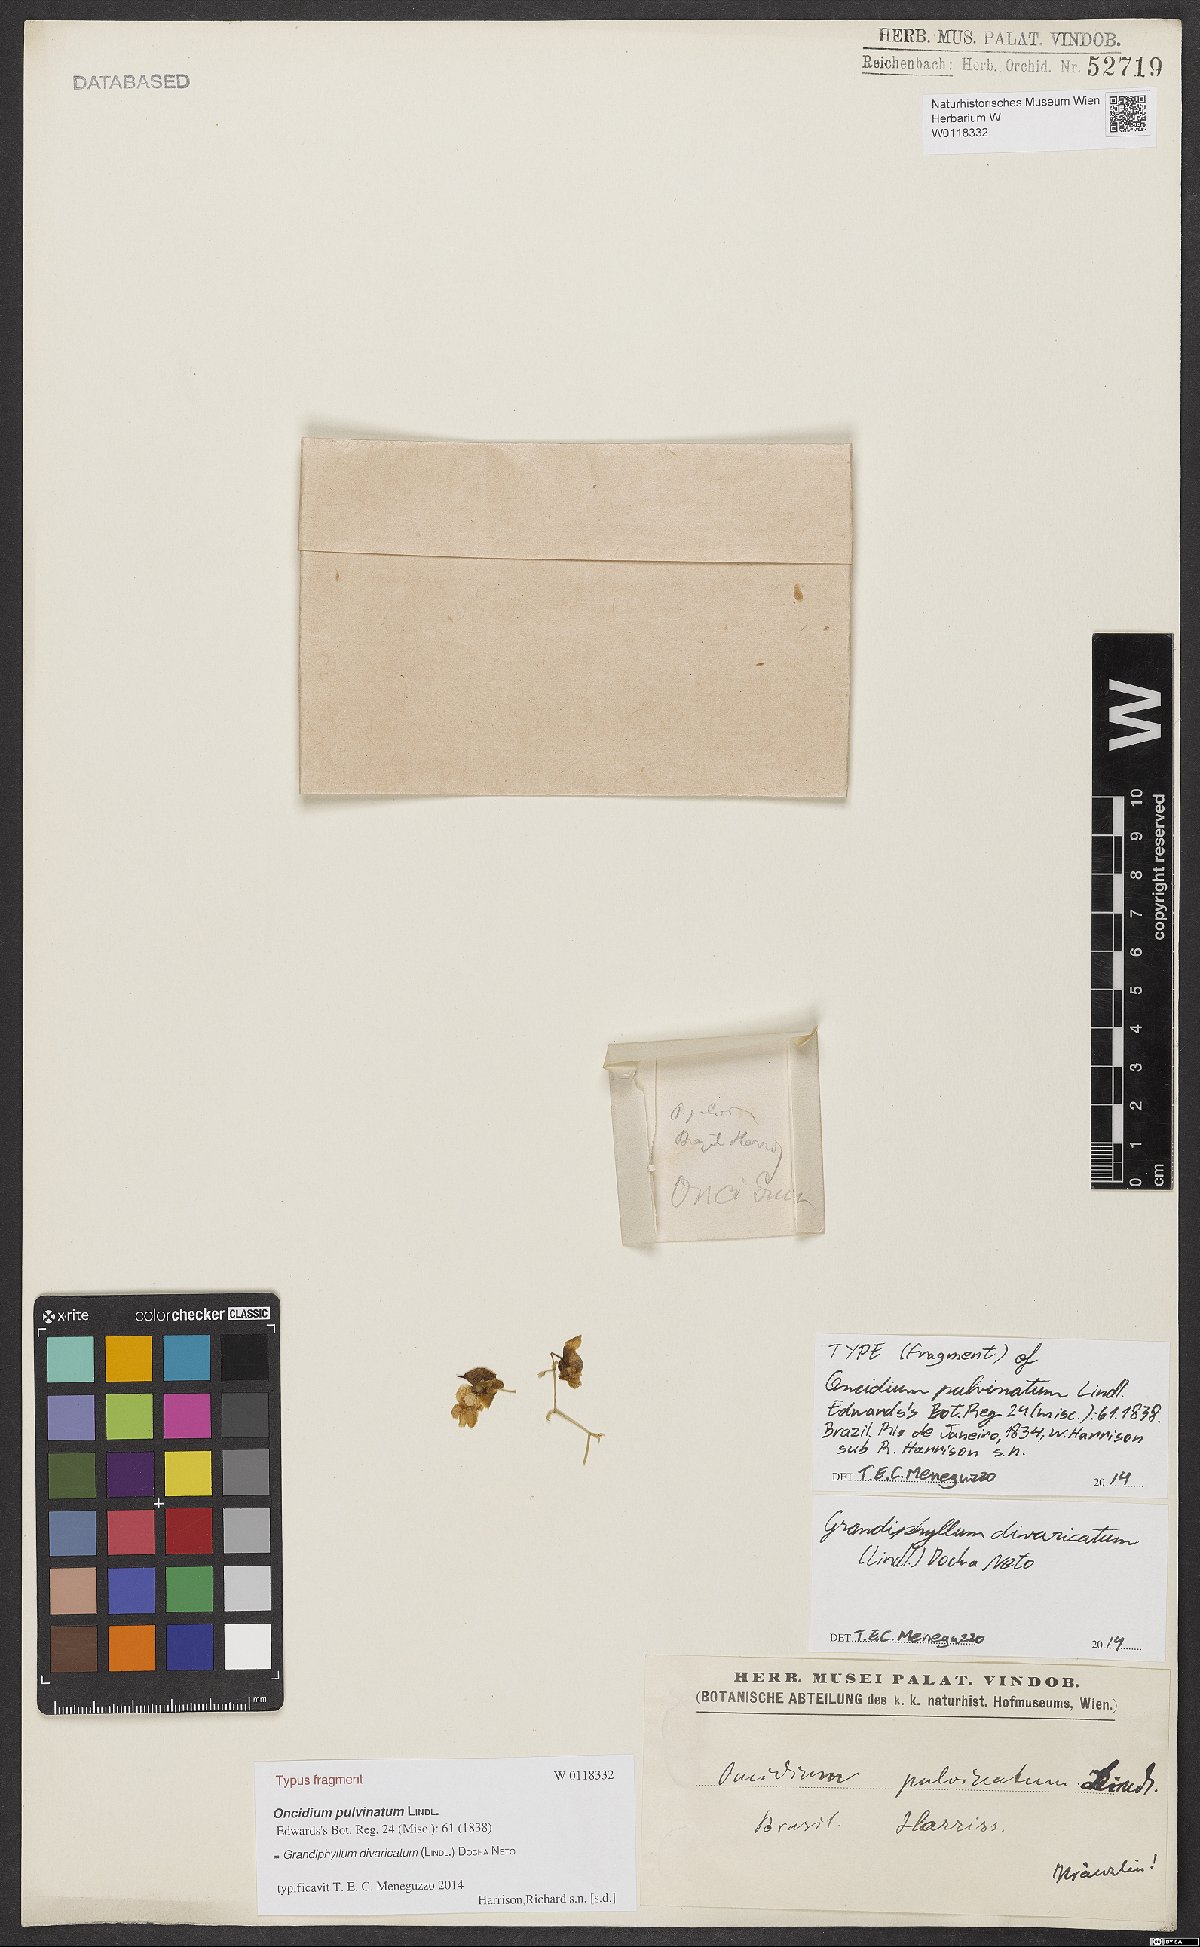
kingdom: Plantae
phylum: Tracheophyta
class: Liliopsida
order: Asparagales
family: Orchidaceae
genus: Grandiphyllum
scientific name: Grandiphyllum divaricatum
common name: Mule-ear orchid
